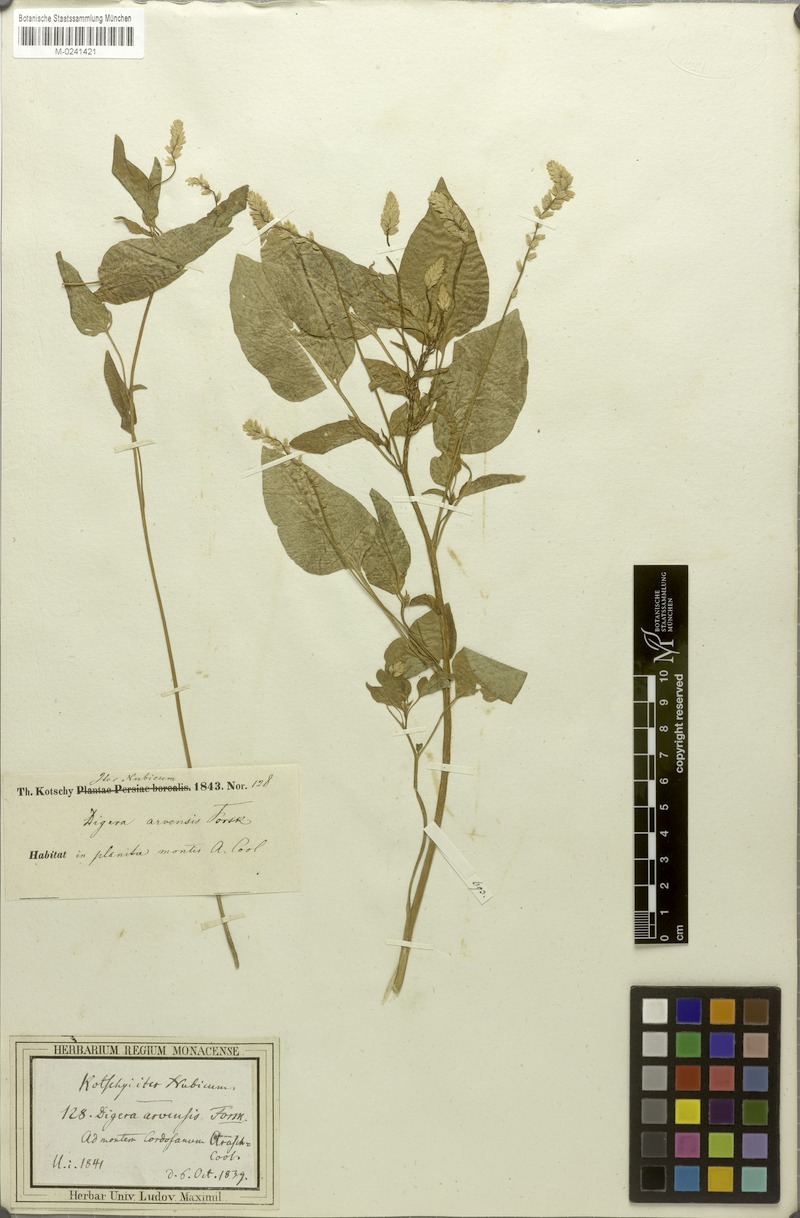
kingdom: Plantae
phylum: Tracheophyta
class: Magnoliopsida
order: Caryophyllales
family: Amaranthaceae
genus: Digera
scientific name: Digera muricata
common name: False amaranth
